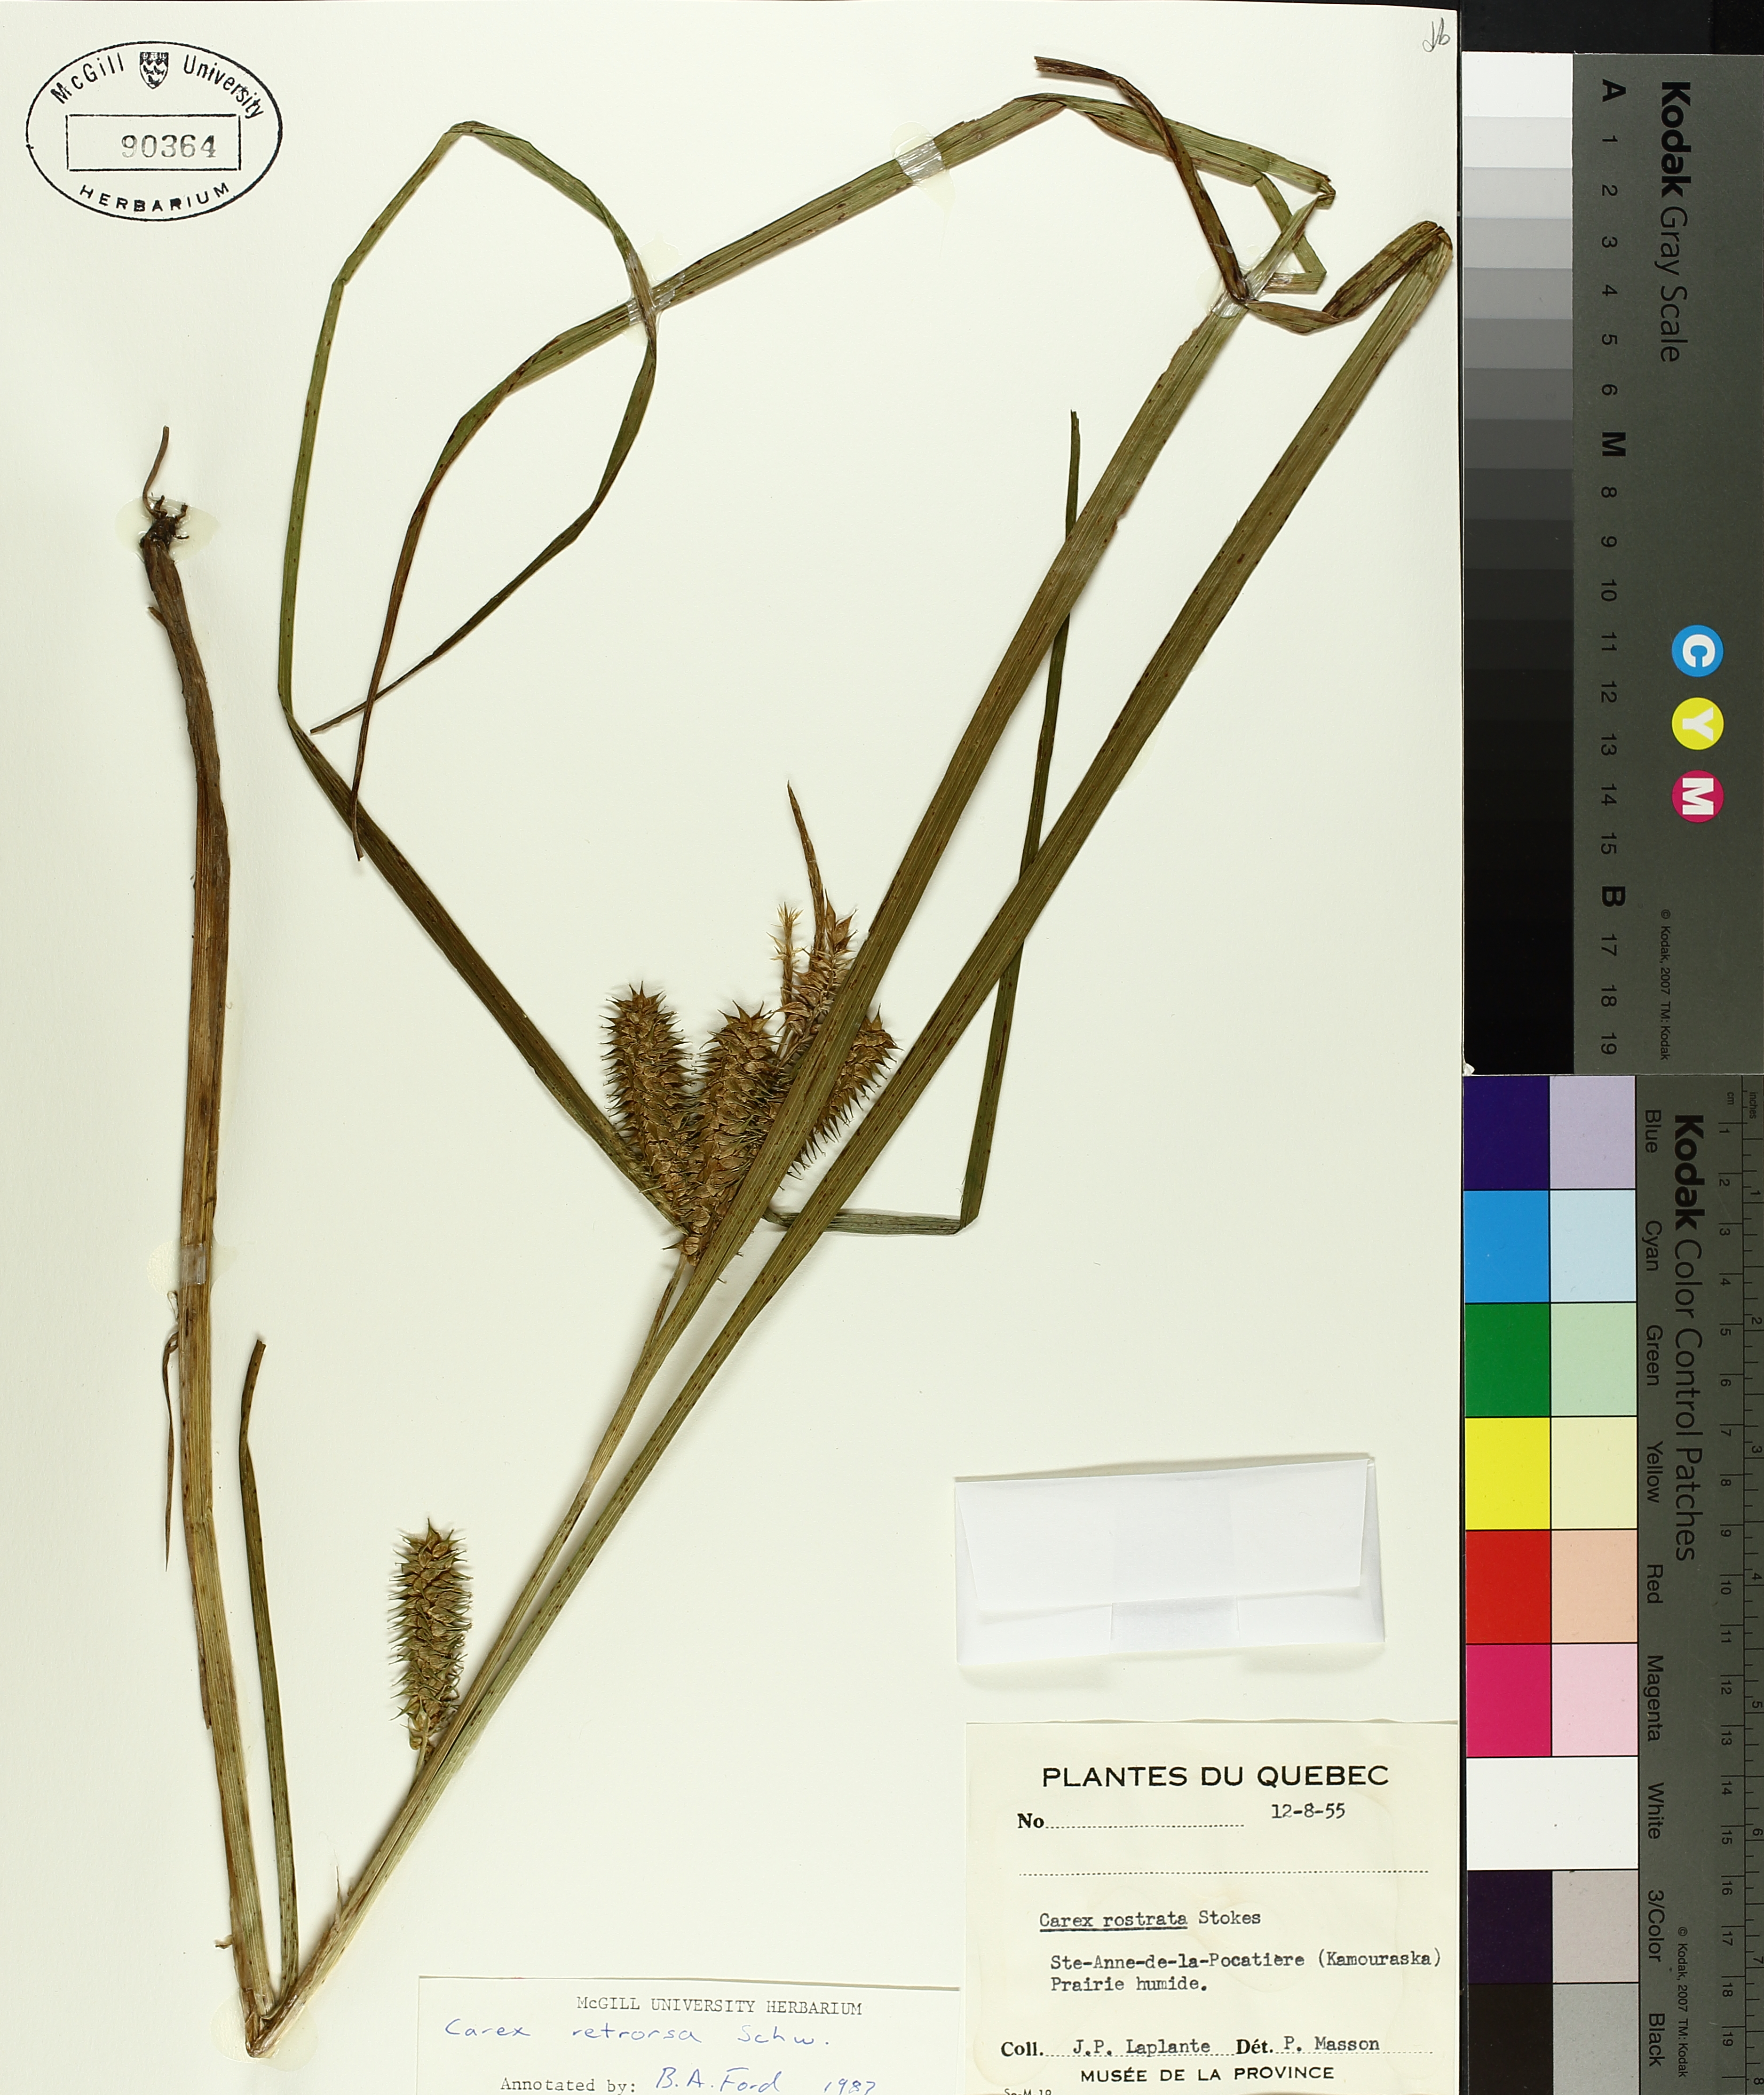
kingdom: Plantae
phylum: Tracheophyta
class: Liliopsida
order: Poales
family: Cyperaceae
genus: Carex
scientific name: Carex retrorsa
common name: Knot-sheath sedge
